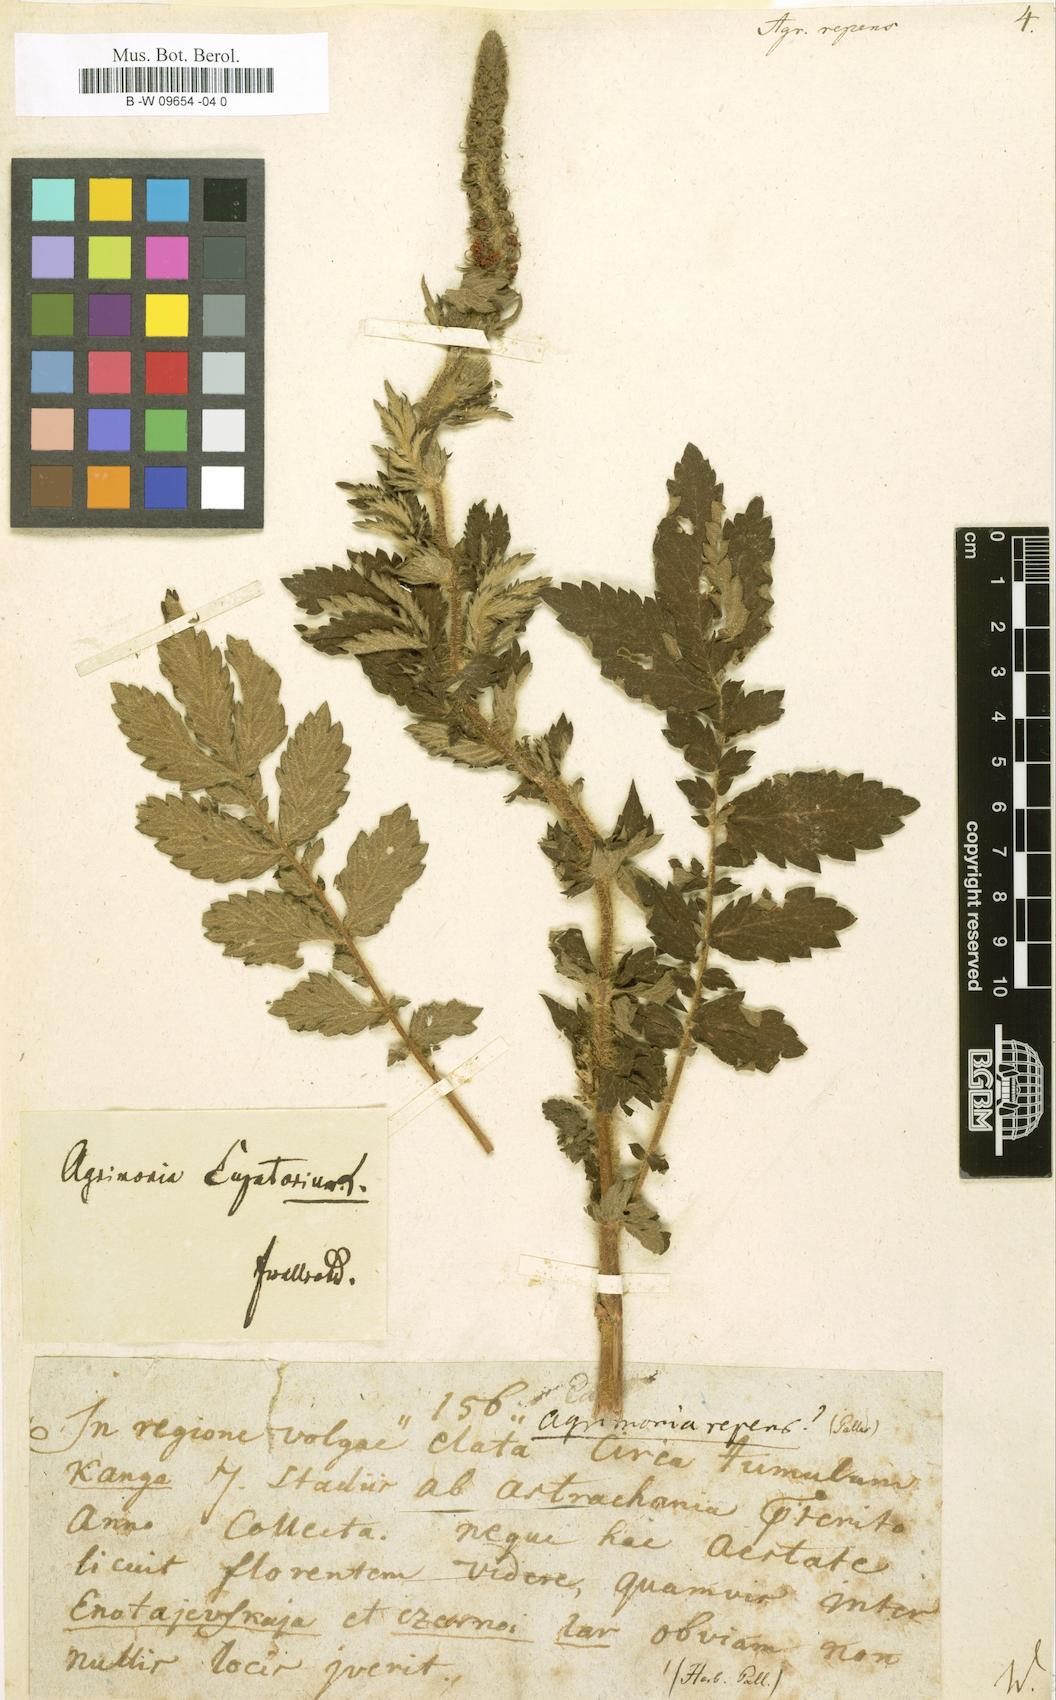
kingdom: Plantae
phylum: Tracheophyta
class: Magnoliopsida
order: Rosales
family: Rosaceae
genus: Agrimonia
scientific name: Agrimonia repens
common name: Creeping agrimony
